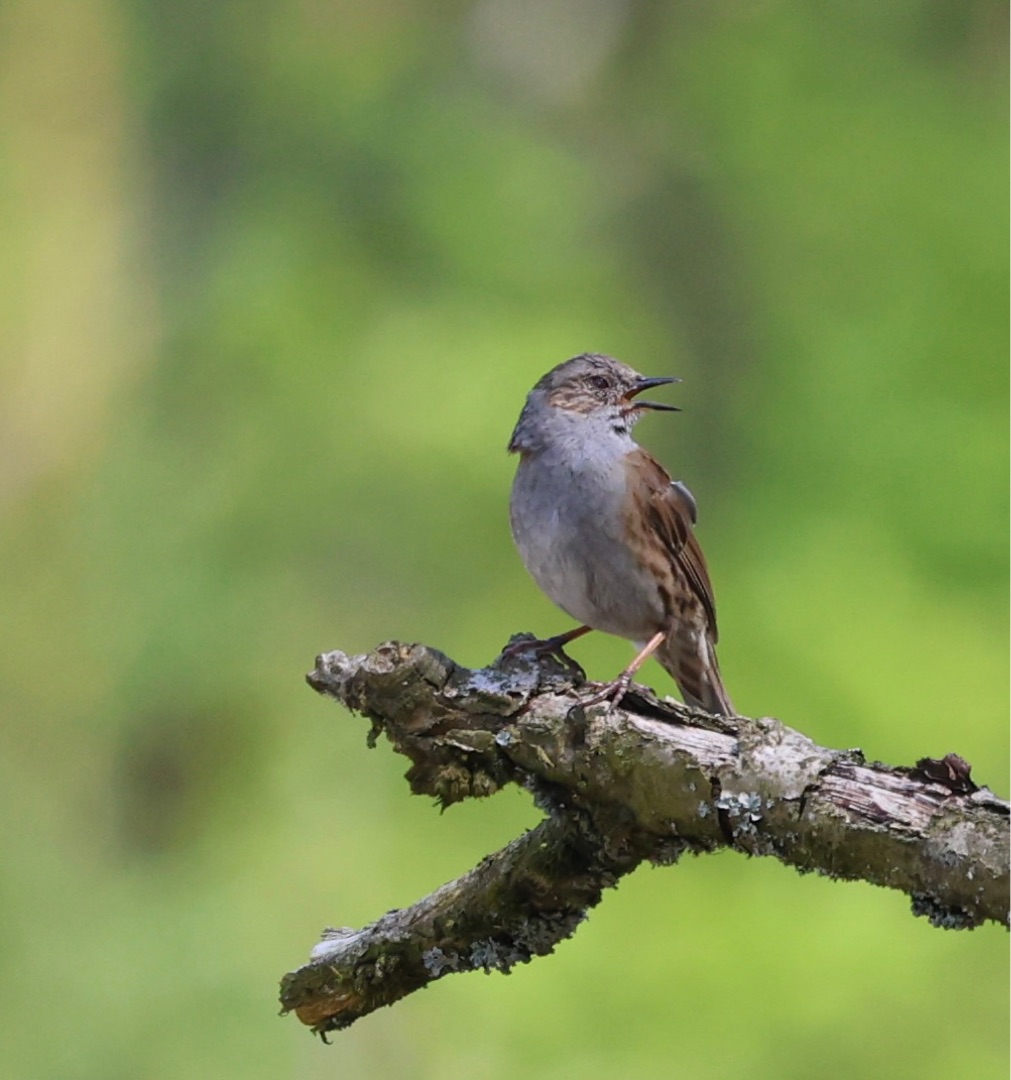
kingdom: Animalia
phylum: Chordata
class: Aves
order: Passeriformes
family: Prunellidae
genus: Prunella
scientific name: Prunella modularis
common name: Jernspurv
